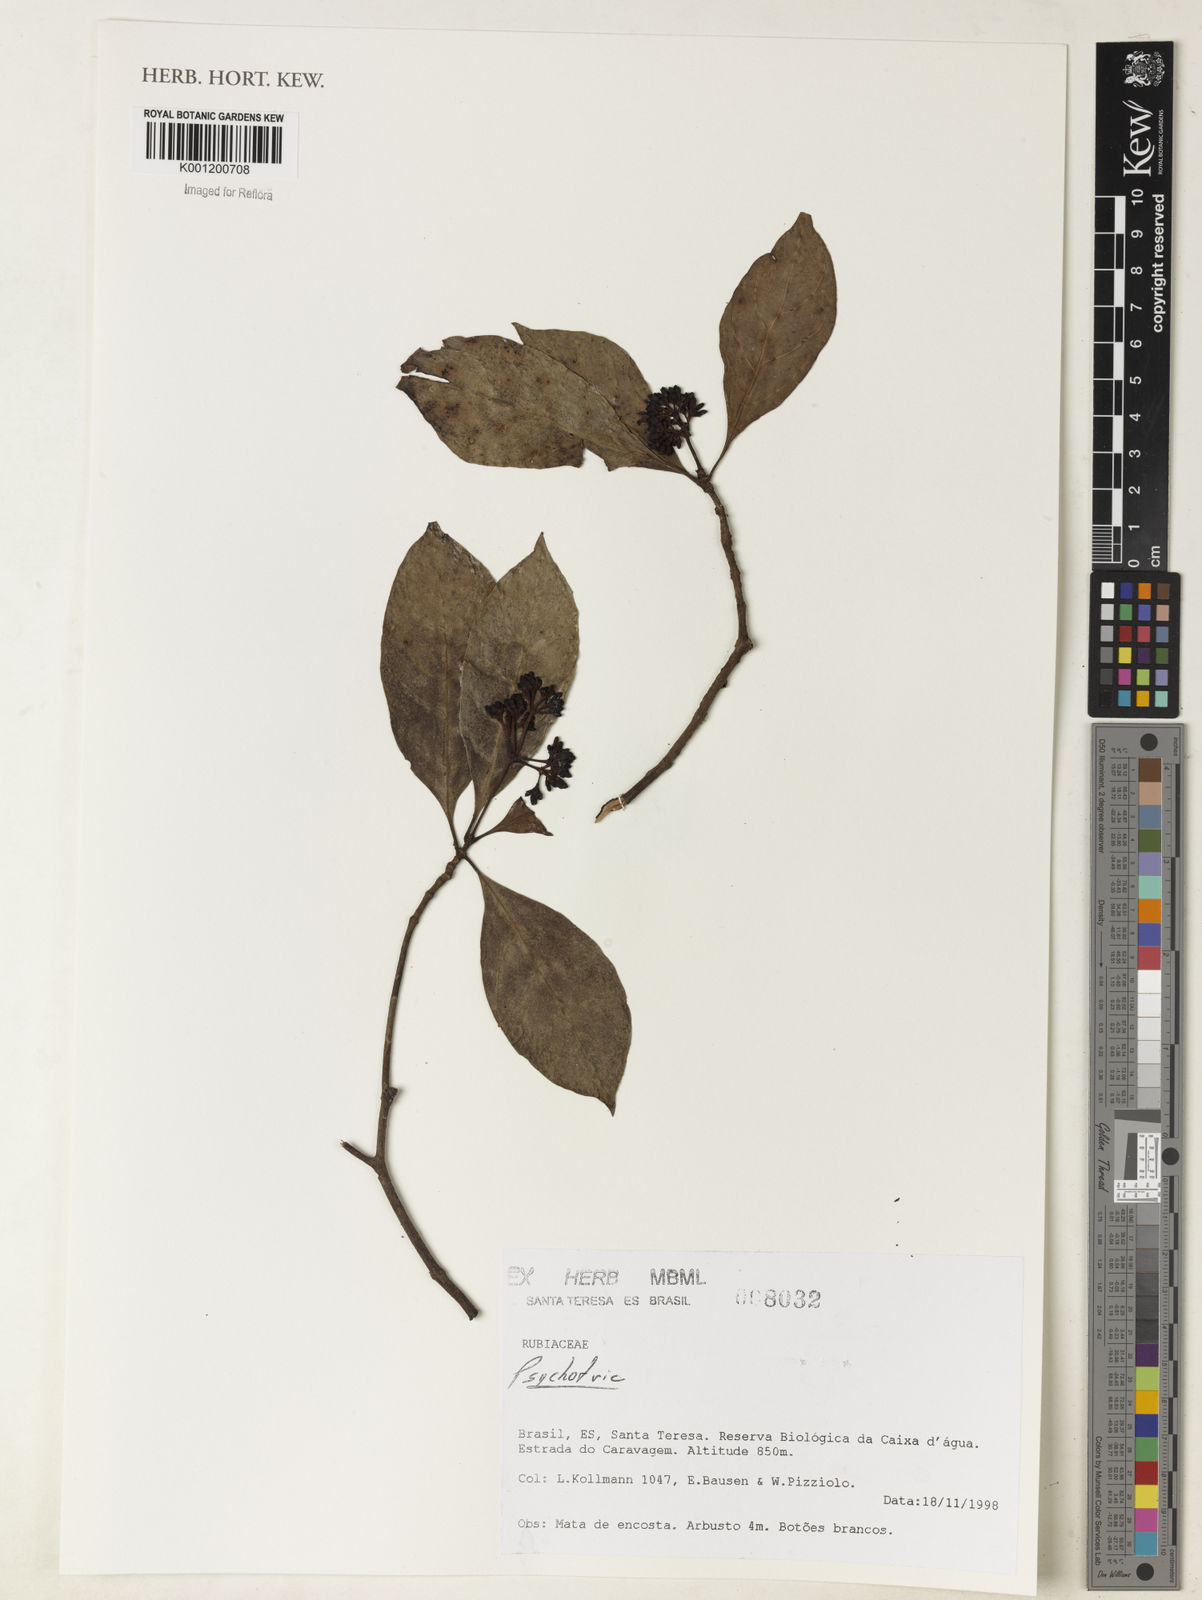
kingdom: Plantae
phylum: Tracheophyta
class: Magnoliopsida
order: Gentianales
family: Rubiaceae
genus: Psychotria
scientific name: Psychotria
